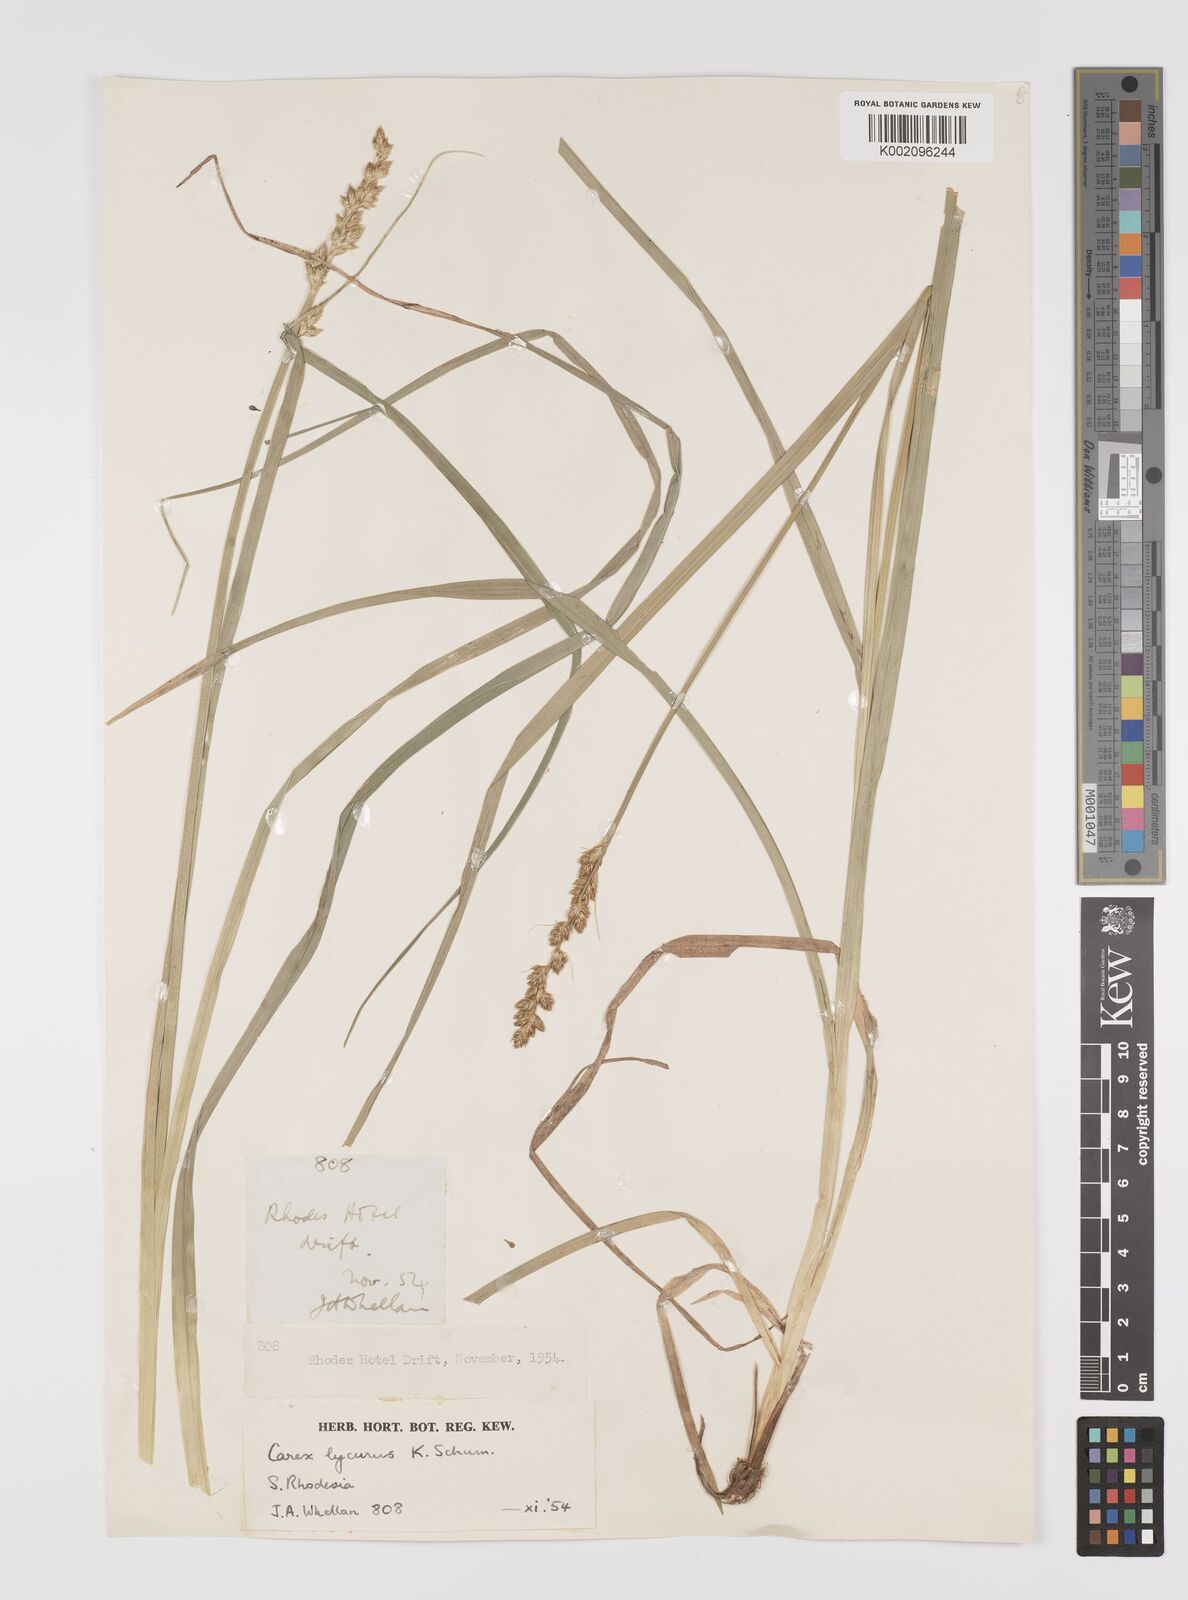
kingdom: Plantae
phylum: Tracheophyta
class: Liliopsida
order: Poales
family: Cyperaceae
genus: Carex
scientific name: Carex lycurus
